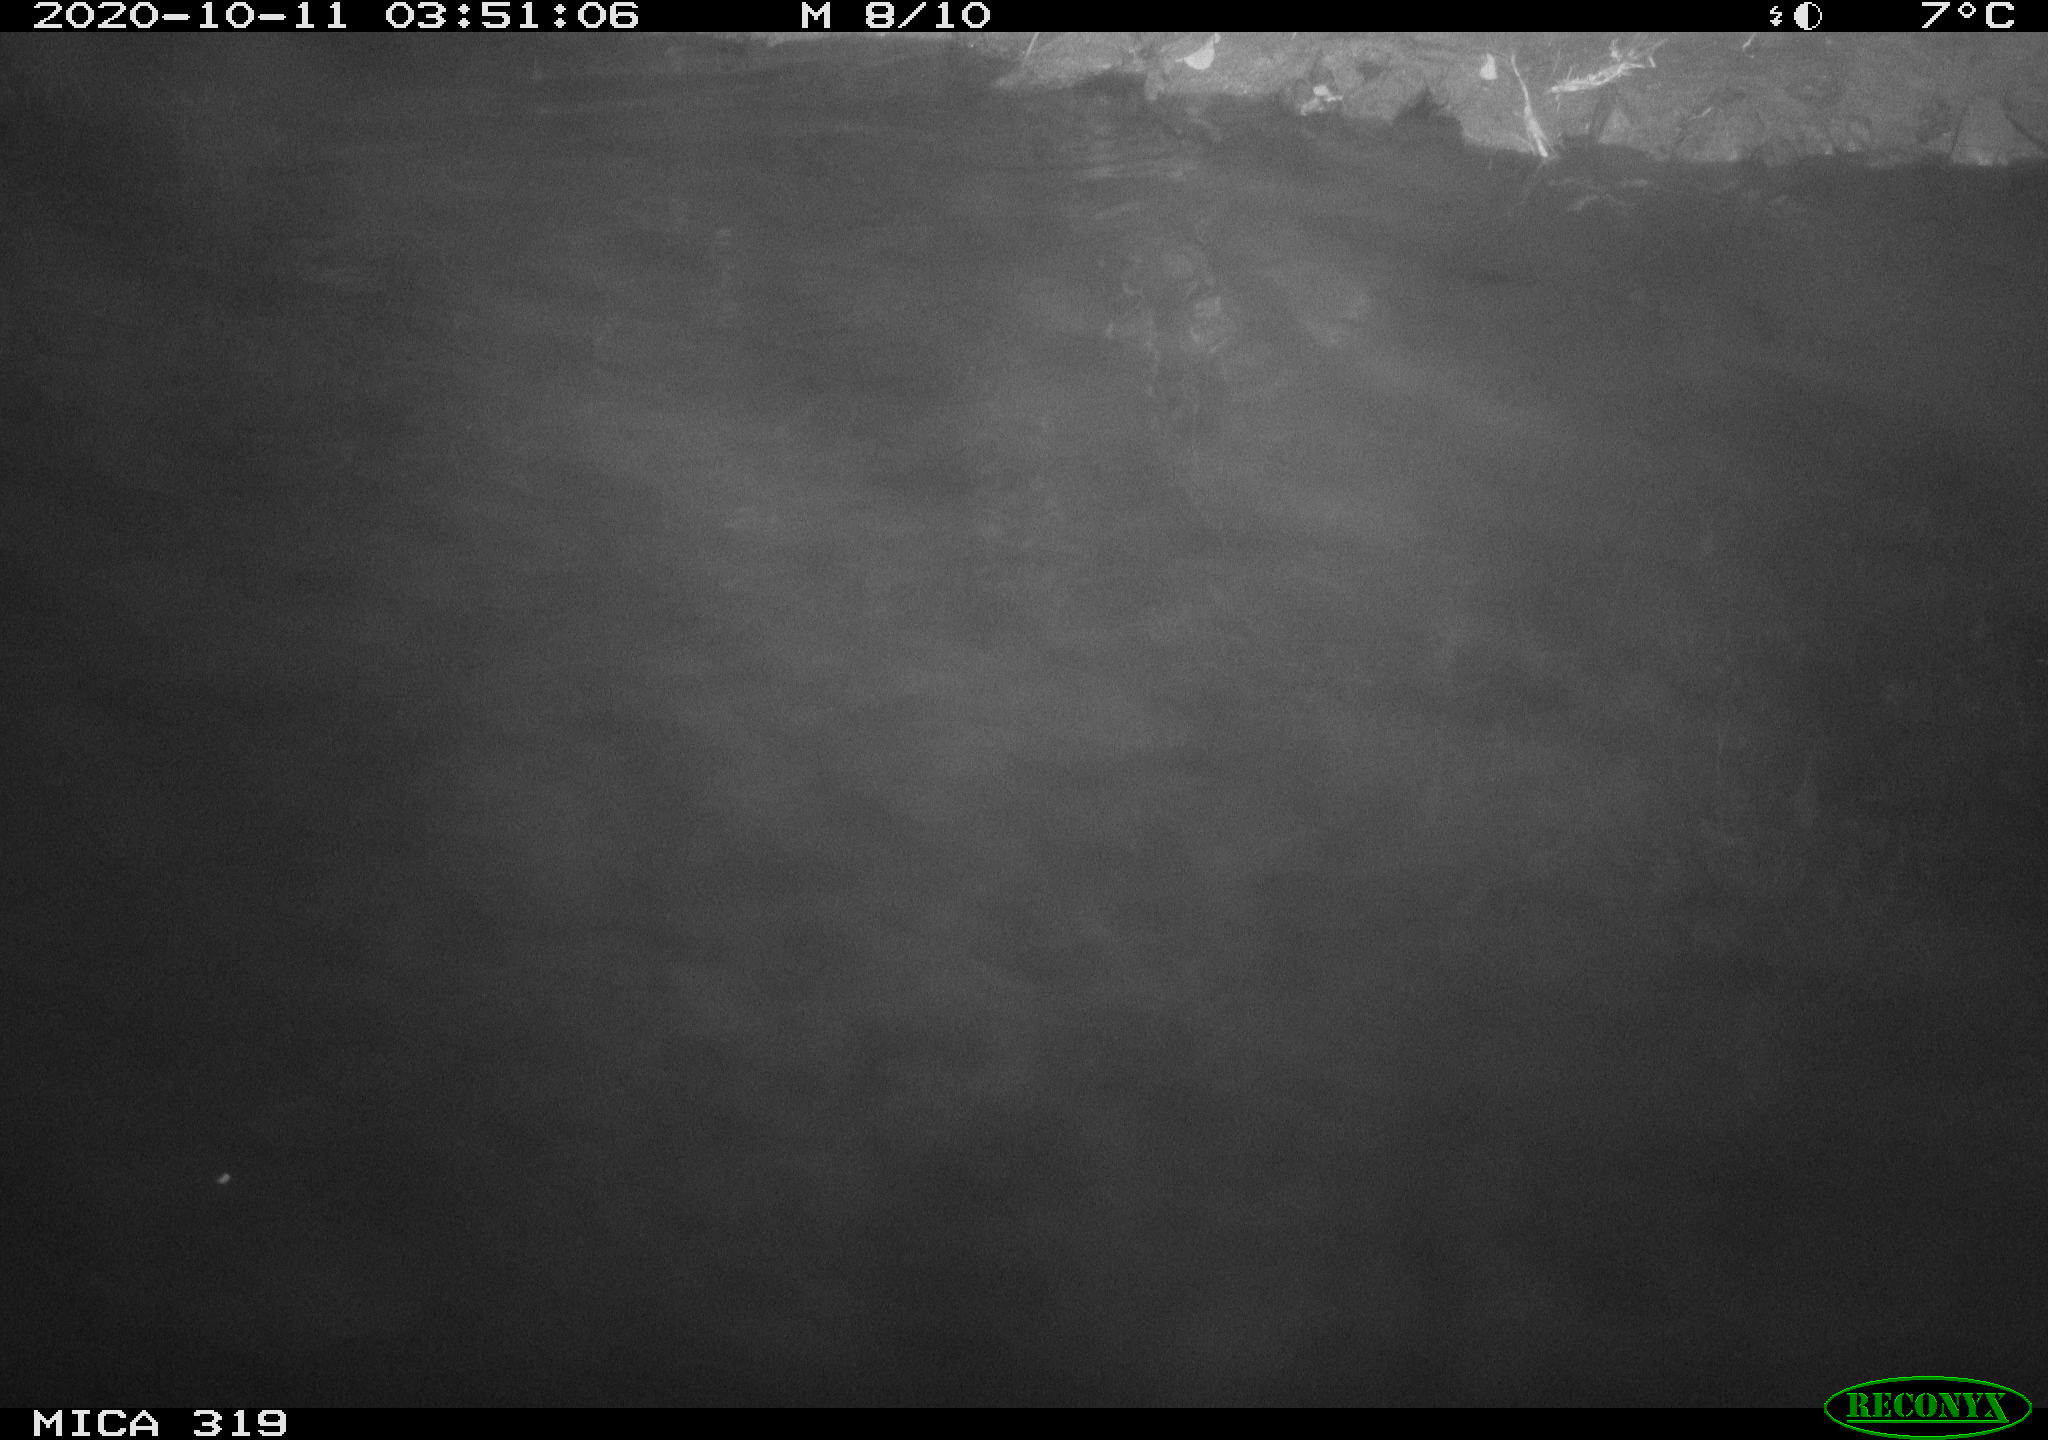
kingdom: Animalia
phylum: Chordata
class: Mammalia
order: Rodentia
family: Muridae
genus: Rattus
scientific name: Rattus norvegicus
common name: Brown rat
